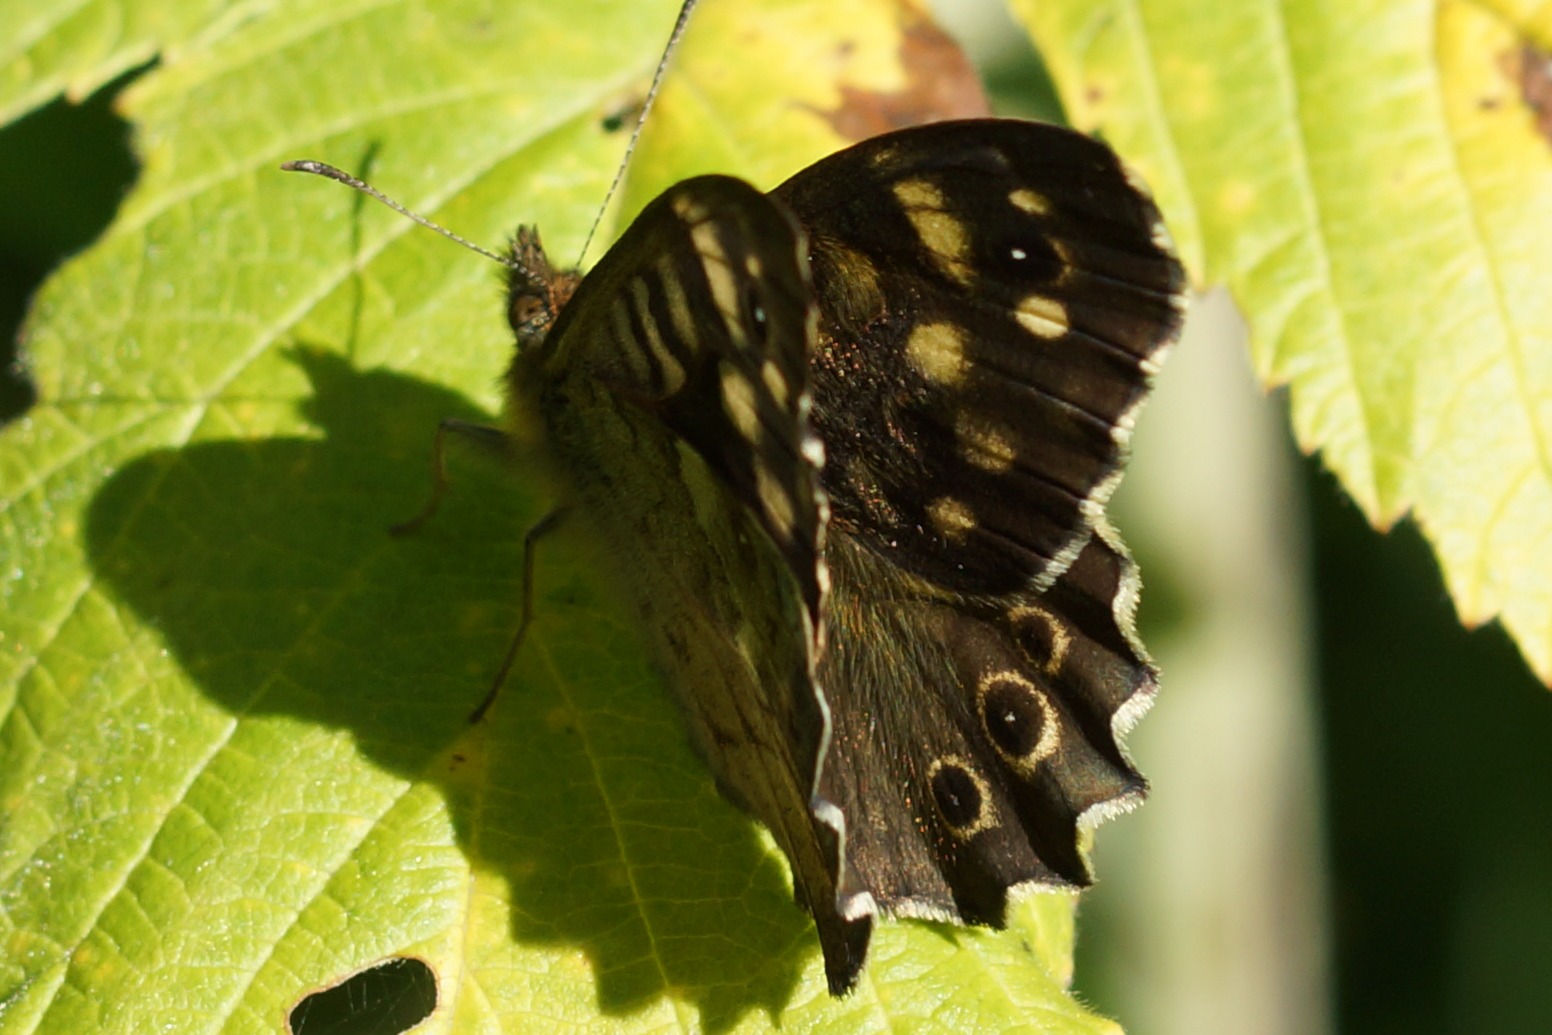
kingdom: Animalia
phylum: Arthropoda
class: Insecta
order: Lepidoptera
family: Nymphalidae
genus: Pararge
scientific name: Pararge aegeria
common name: Skovrandøje
